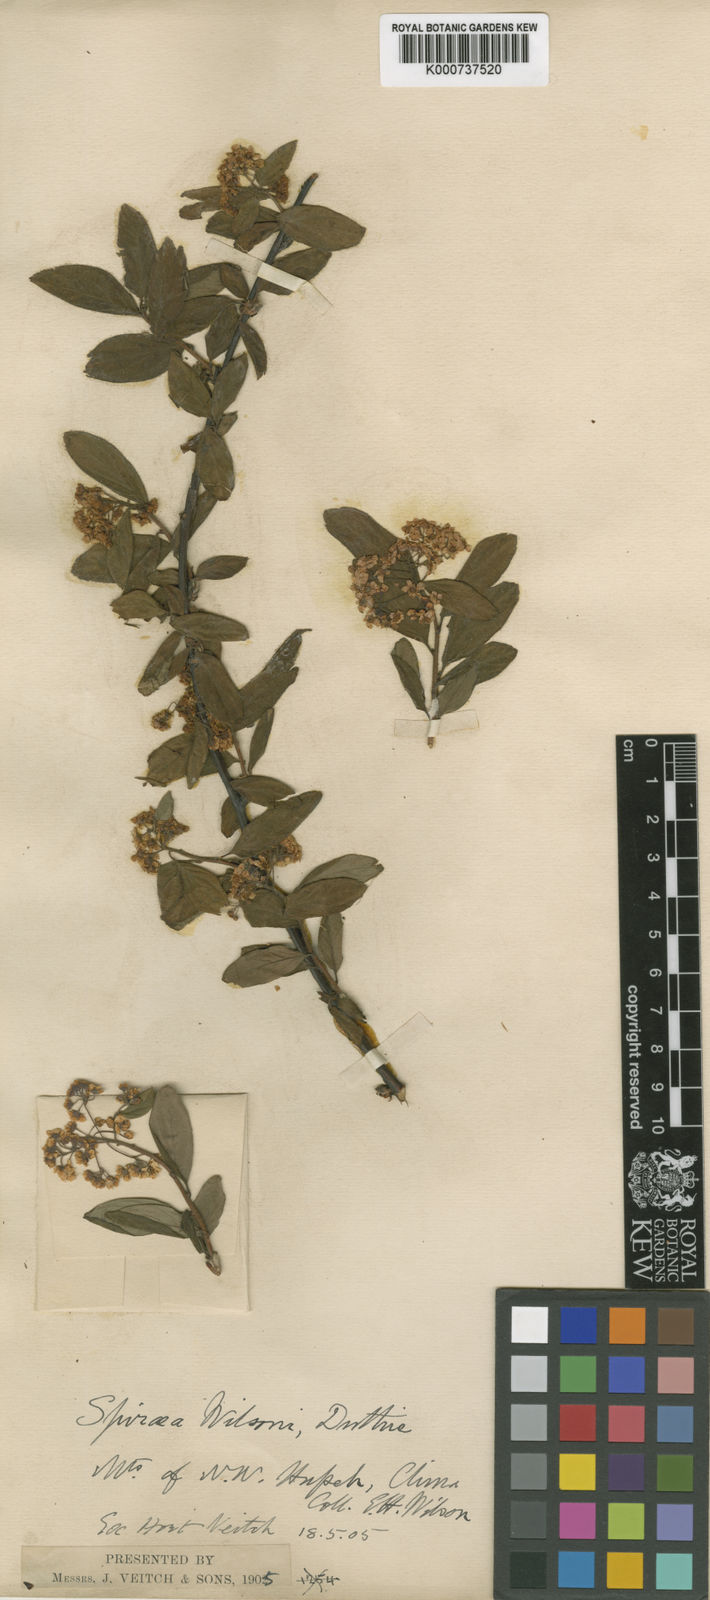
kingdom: Plantae
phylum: Tracheophyta
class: Magnoliopsida
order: Rosales
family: Rosaceae
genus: Spiraea
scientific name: Spiraea
